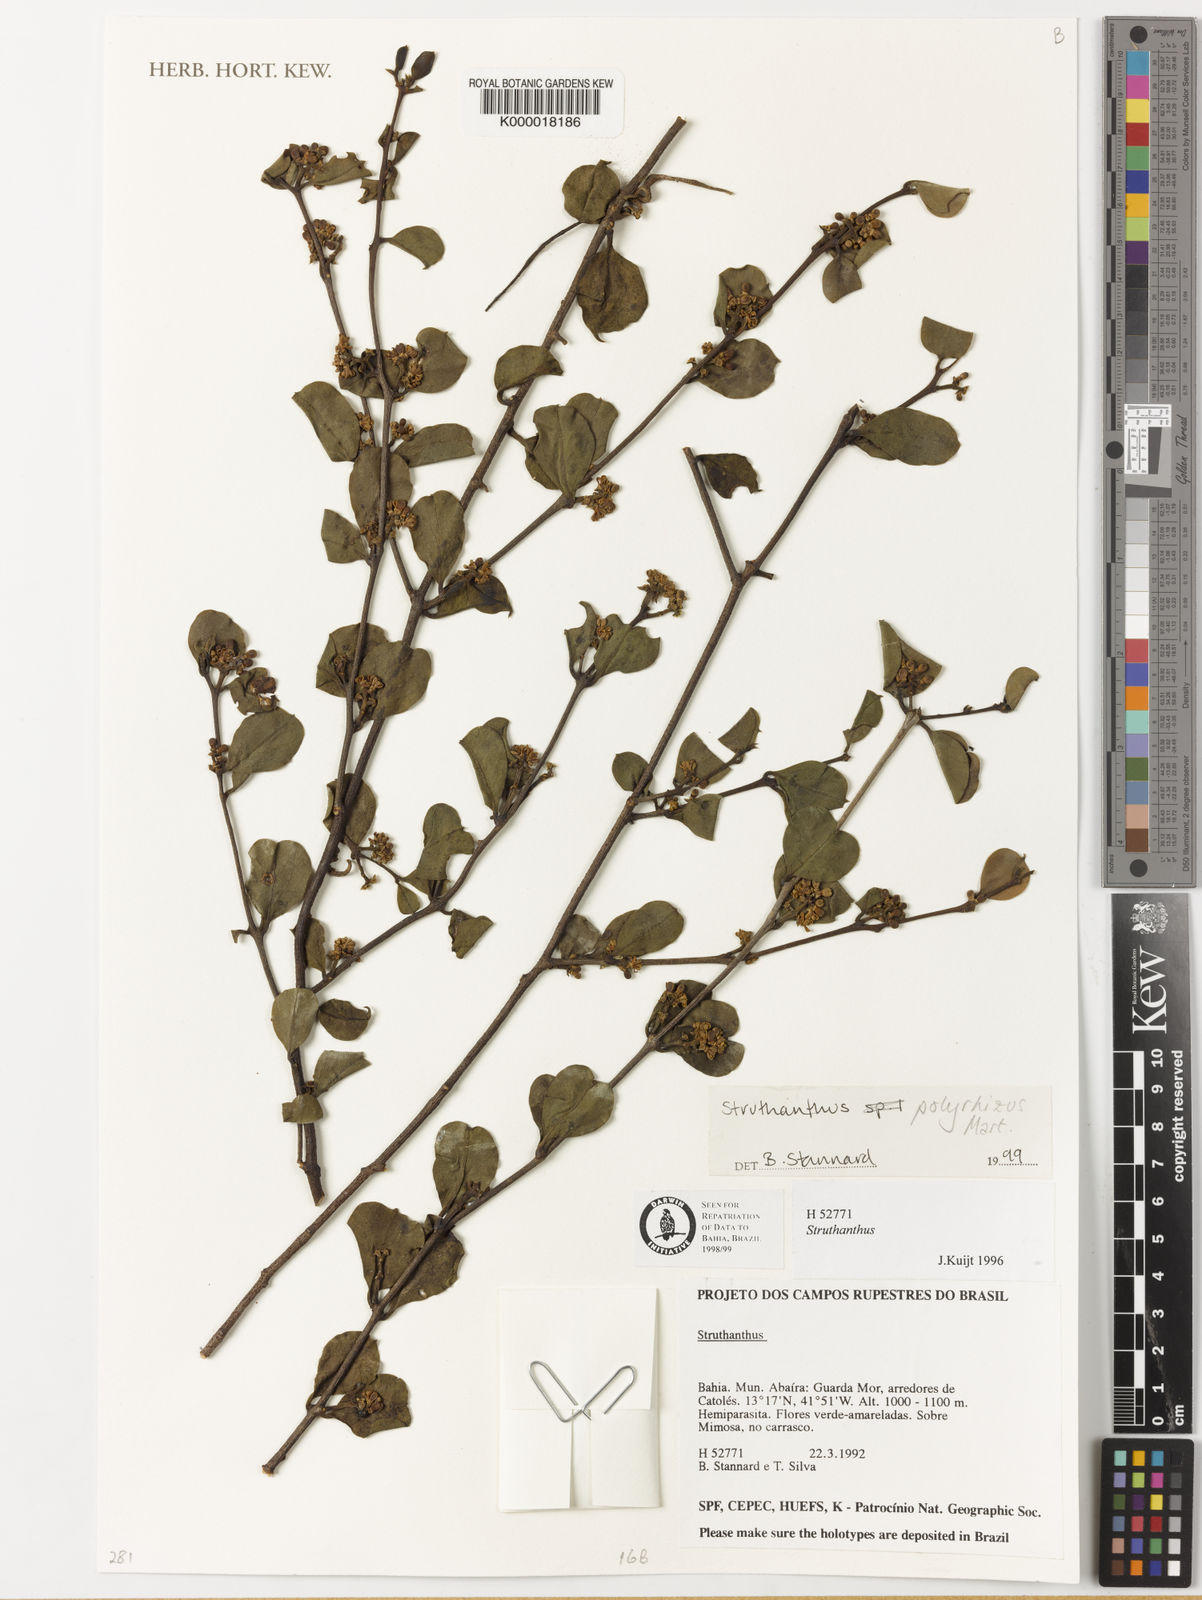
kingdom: Plantae
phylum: Tracheophyta
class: Magnoliopsida
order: Santalales
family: Loranthaceae
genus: Struthanthus
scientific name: Struthanthus
